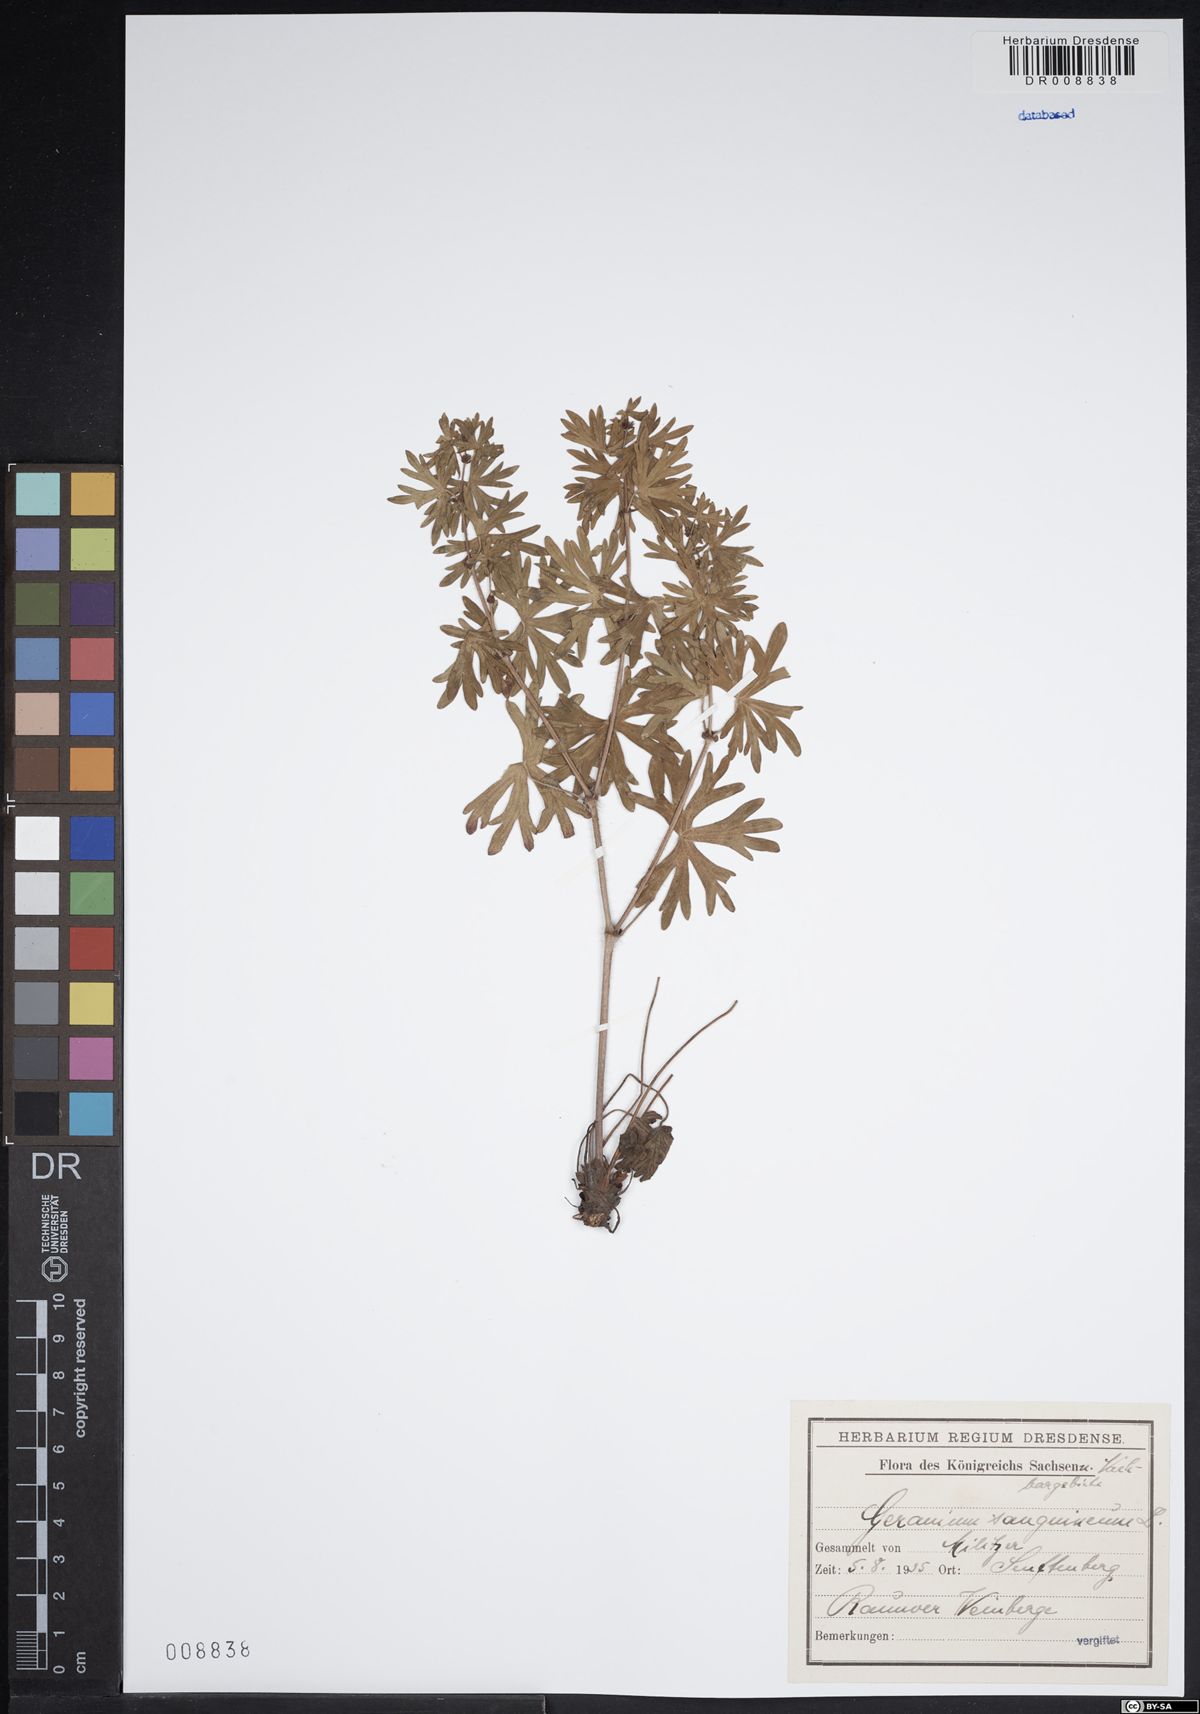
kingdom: Plantae
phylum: Tracheophyta
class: Magnoliopsida
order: Geraniales
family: Geraniaceae
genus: Geranium
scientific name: Geranium sanguineum
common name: Bloody crane's-bill
